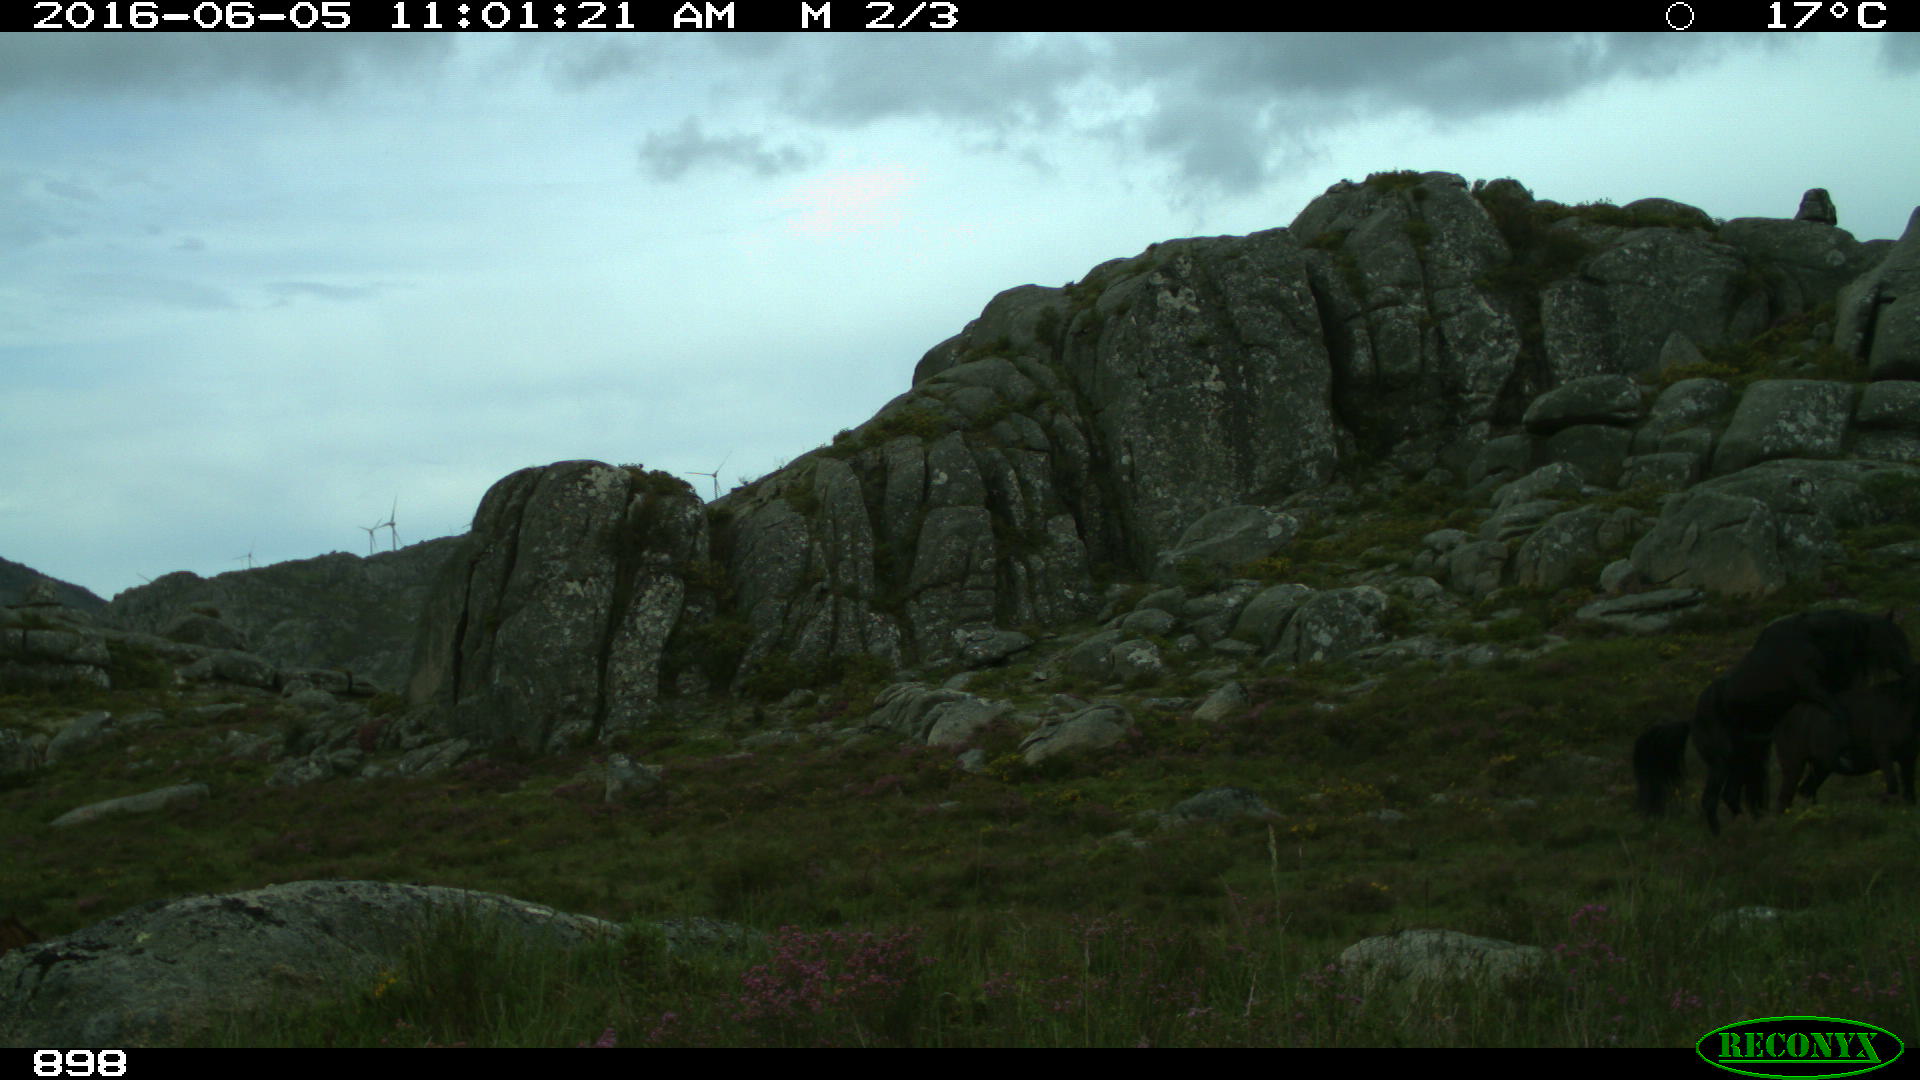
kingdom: Animalia
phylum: Chordata
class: Mammalia
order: Perissodactyla
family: Equidae
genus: Equus
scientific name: Equus caballus
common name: Horse
